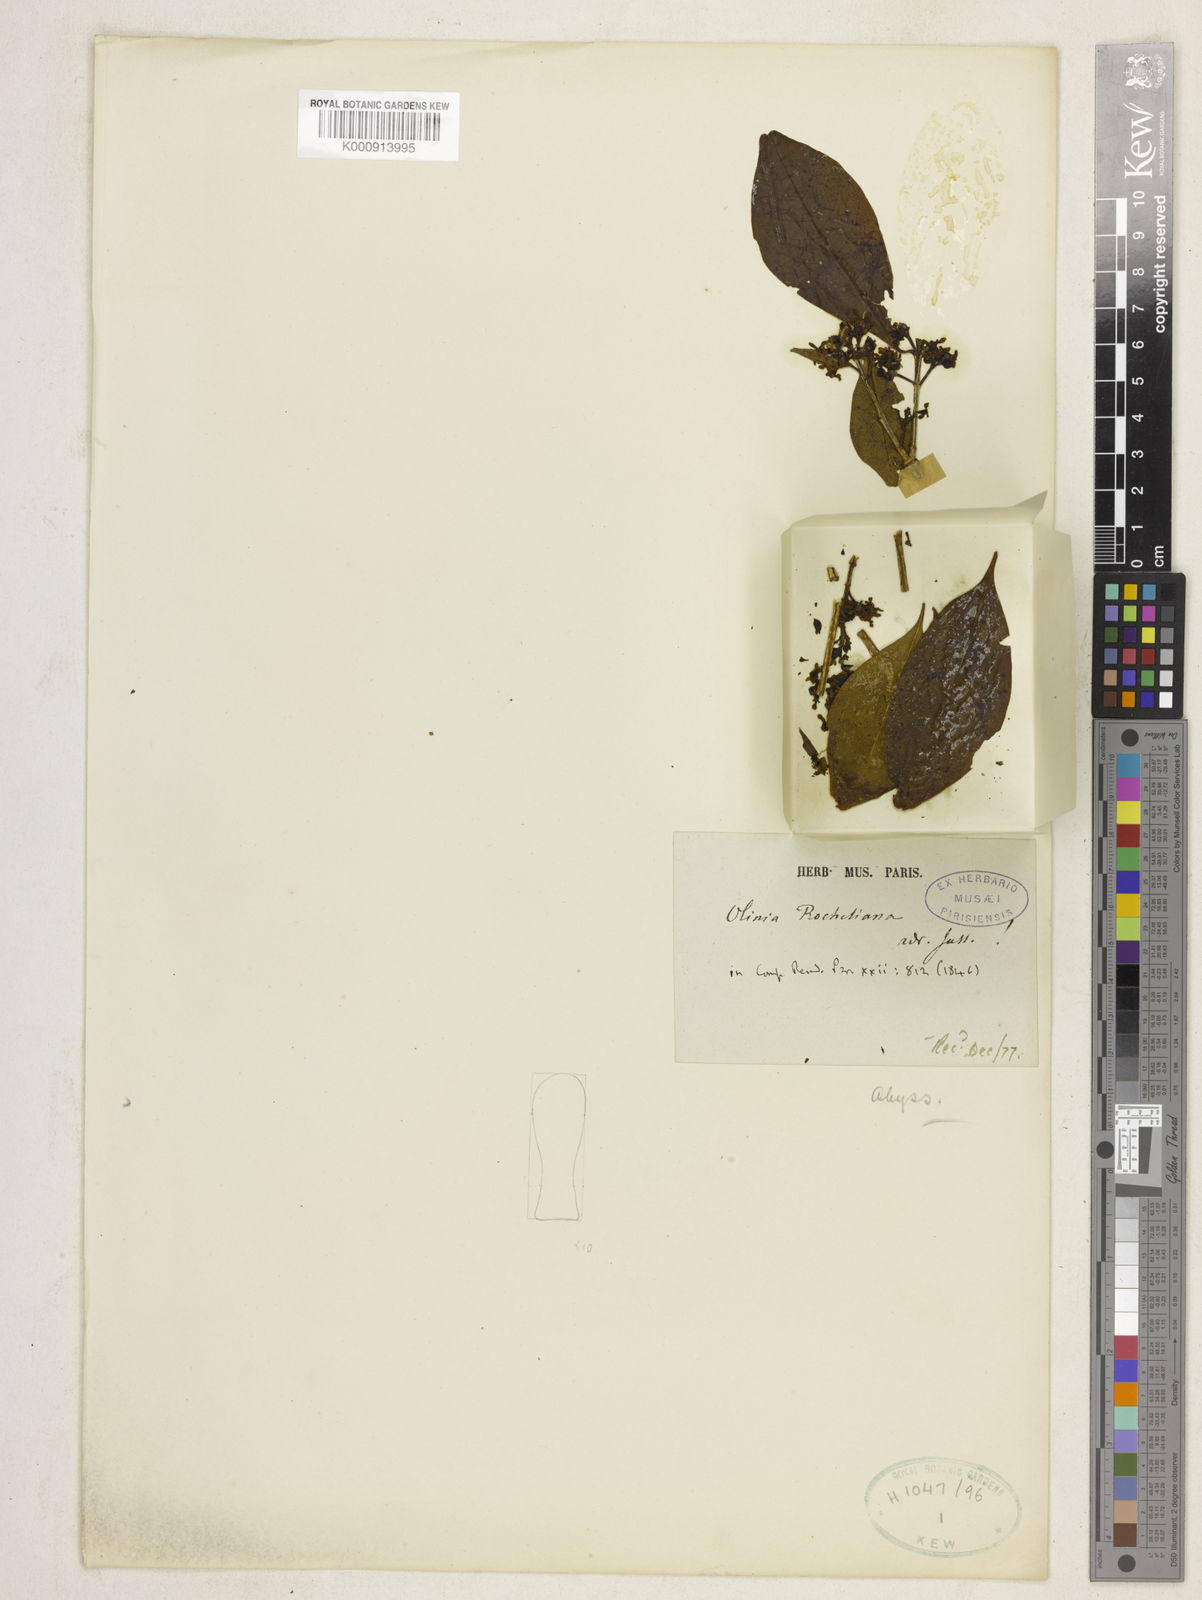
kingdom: Plantae
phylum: Tracheophyta
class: Magnoliopsida
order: Myrtales
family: Penaeaceae
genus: Olinia
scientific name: Olinia rochetiana
